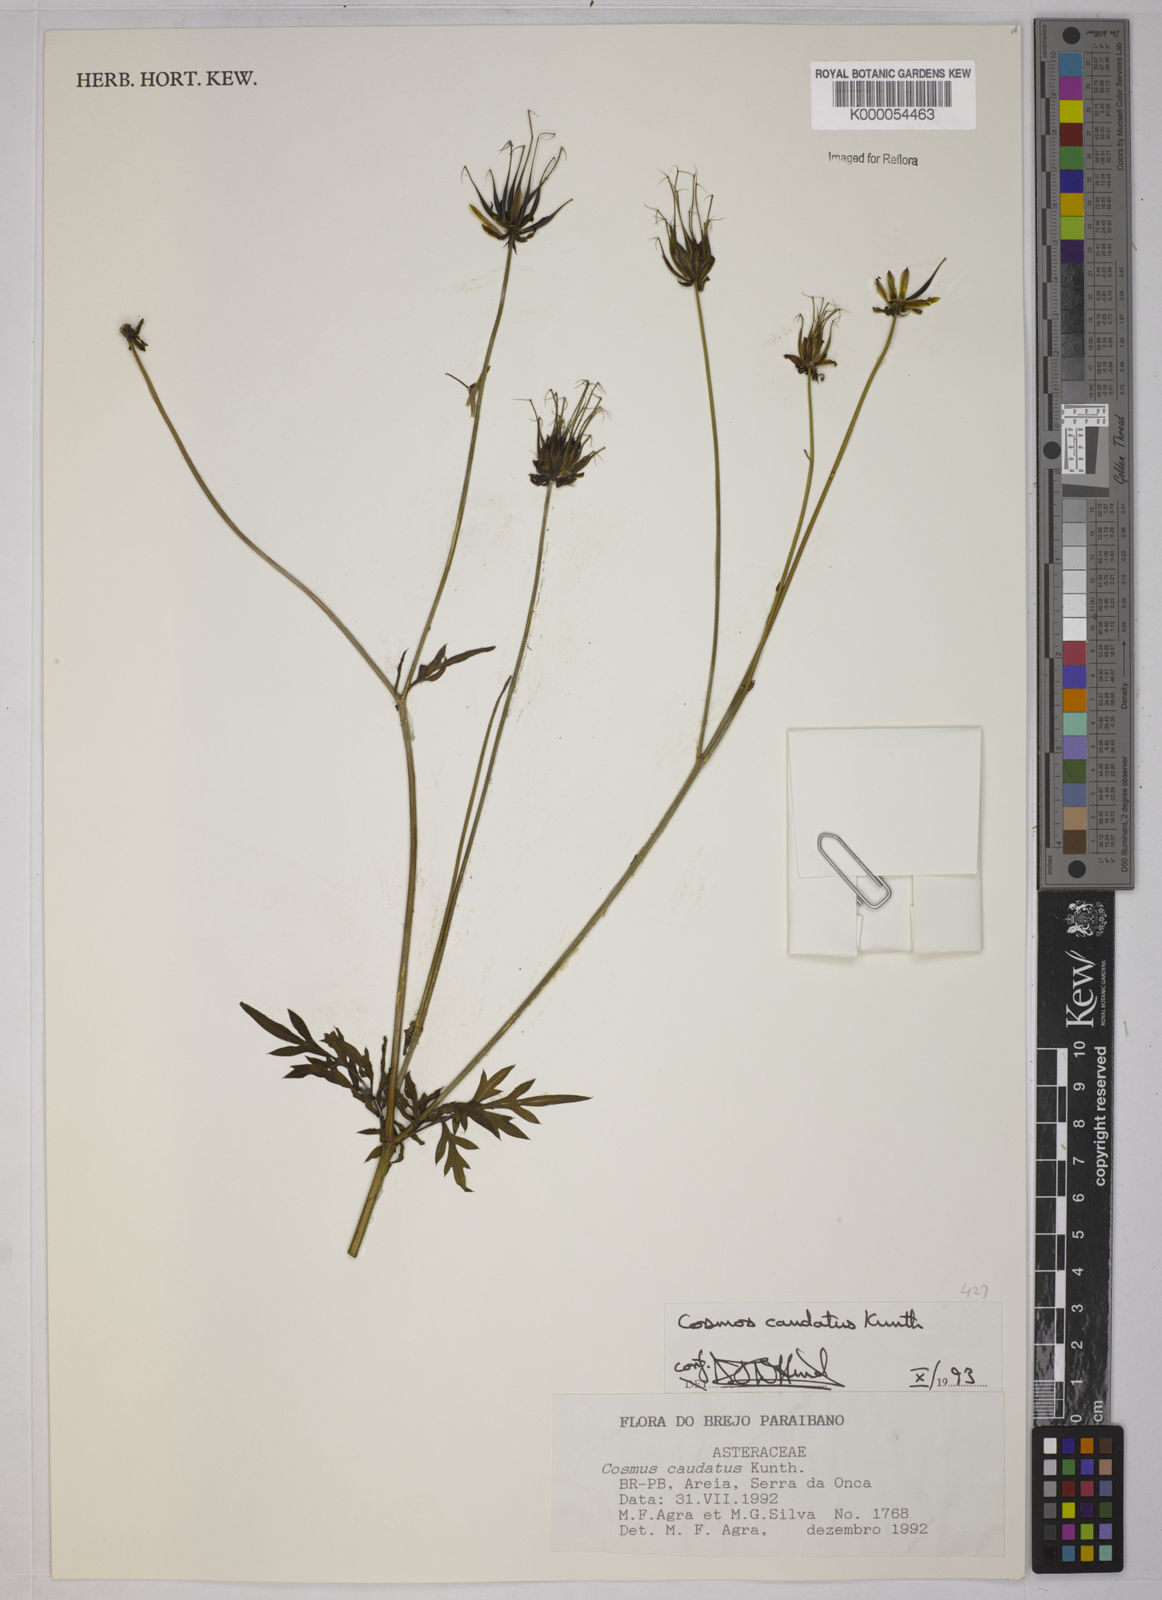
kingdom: Plantae
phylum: Tracheophyta
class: Magnoliopsida
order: Asterales
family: Asteraceae
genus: Cosmos
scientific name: Cosmos caudatus
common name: Wild cosmos
